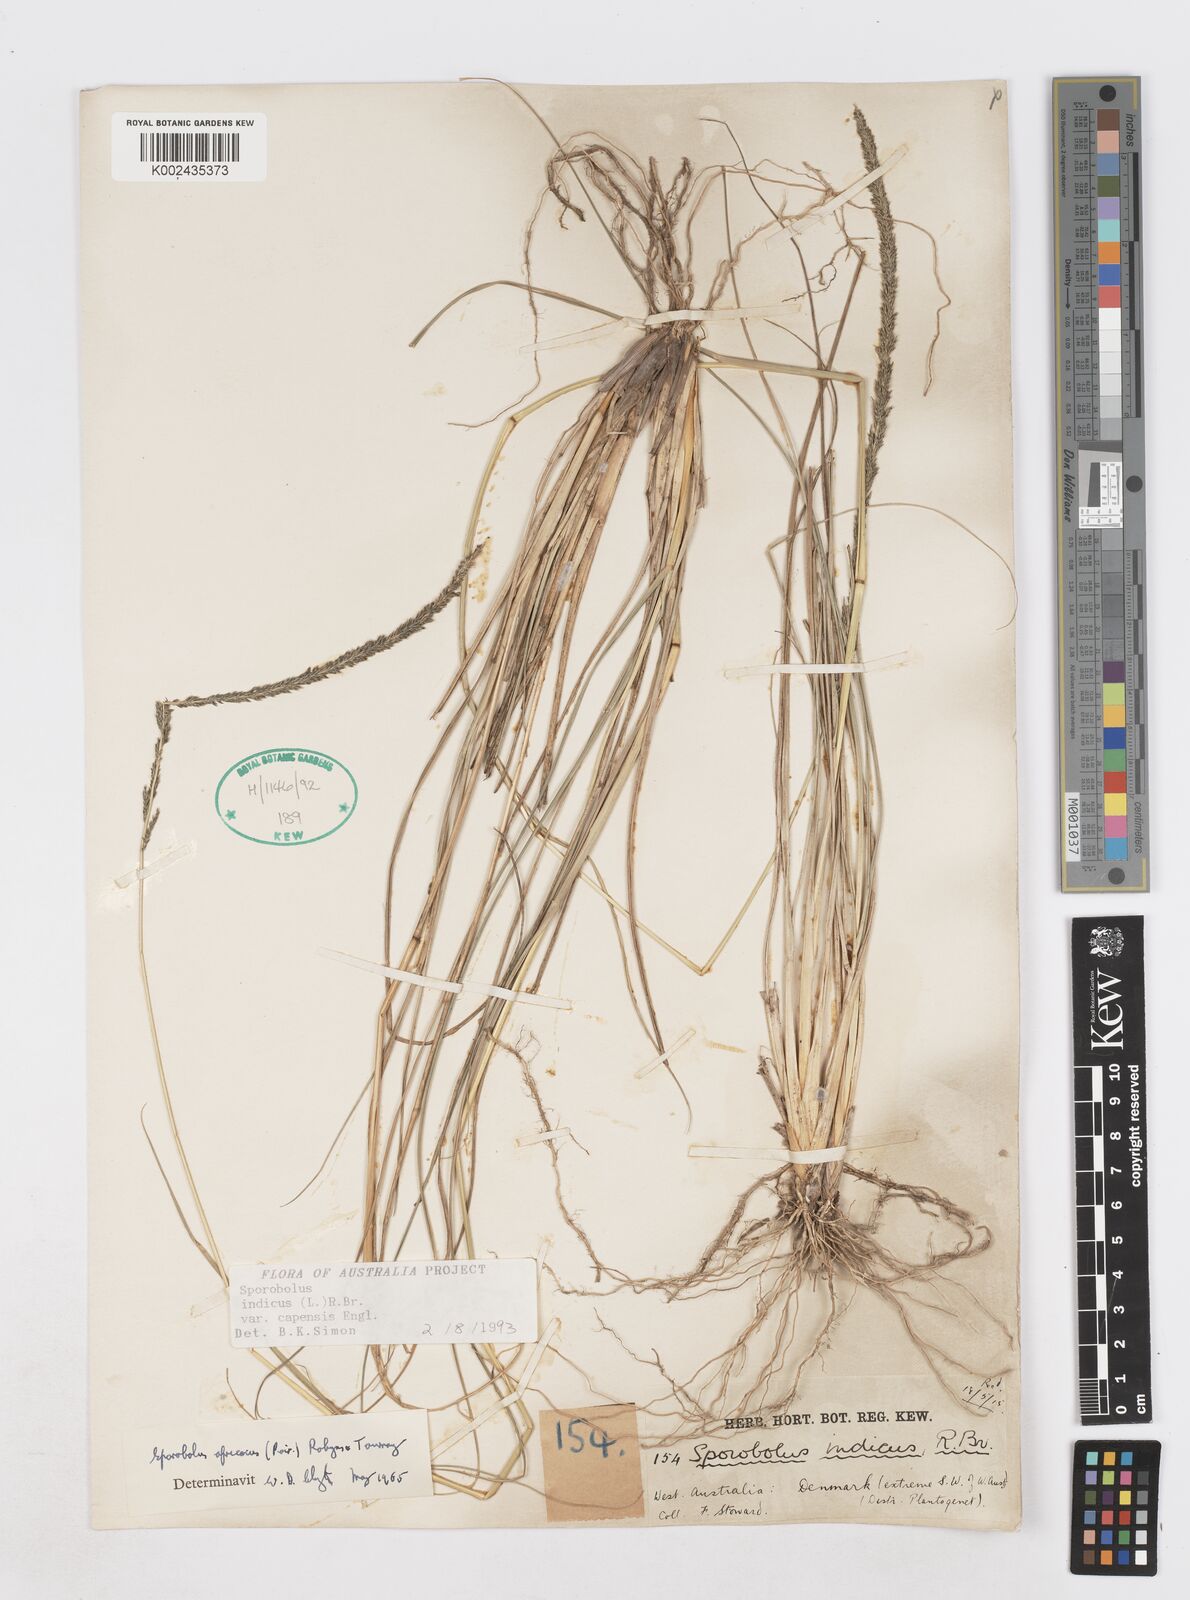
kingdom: Plantae
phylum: Tracheophyta
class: Liliopsida
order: Poales
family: Poaceae
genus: Sporobolus
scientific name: Sporobolus africanus
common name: African dropseed
